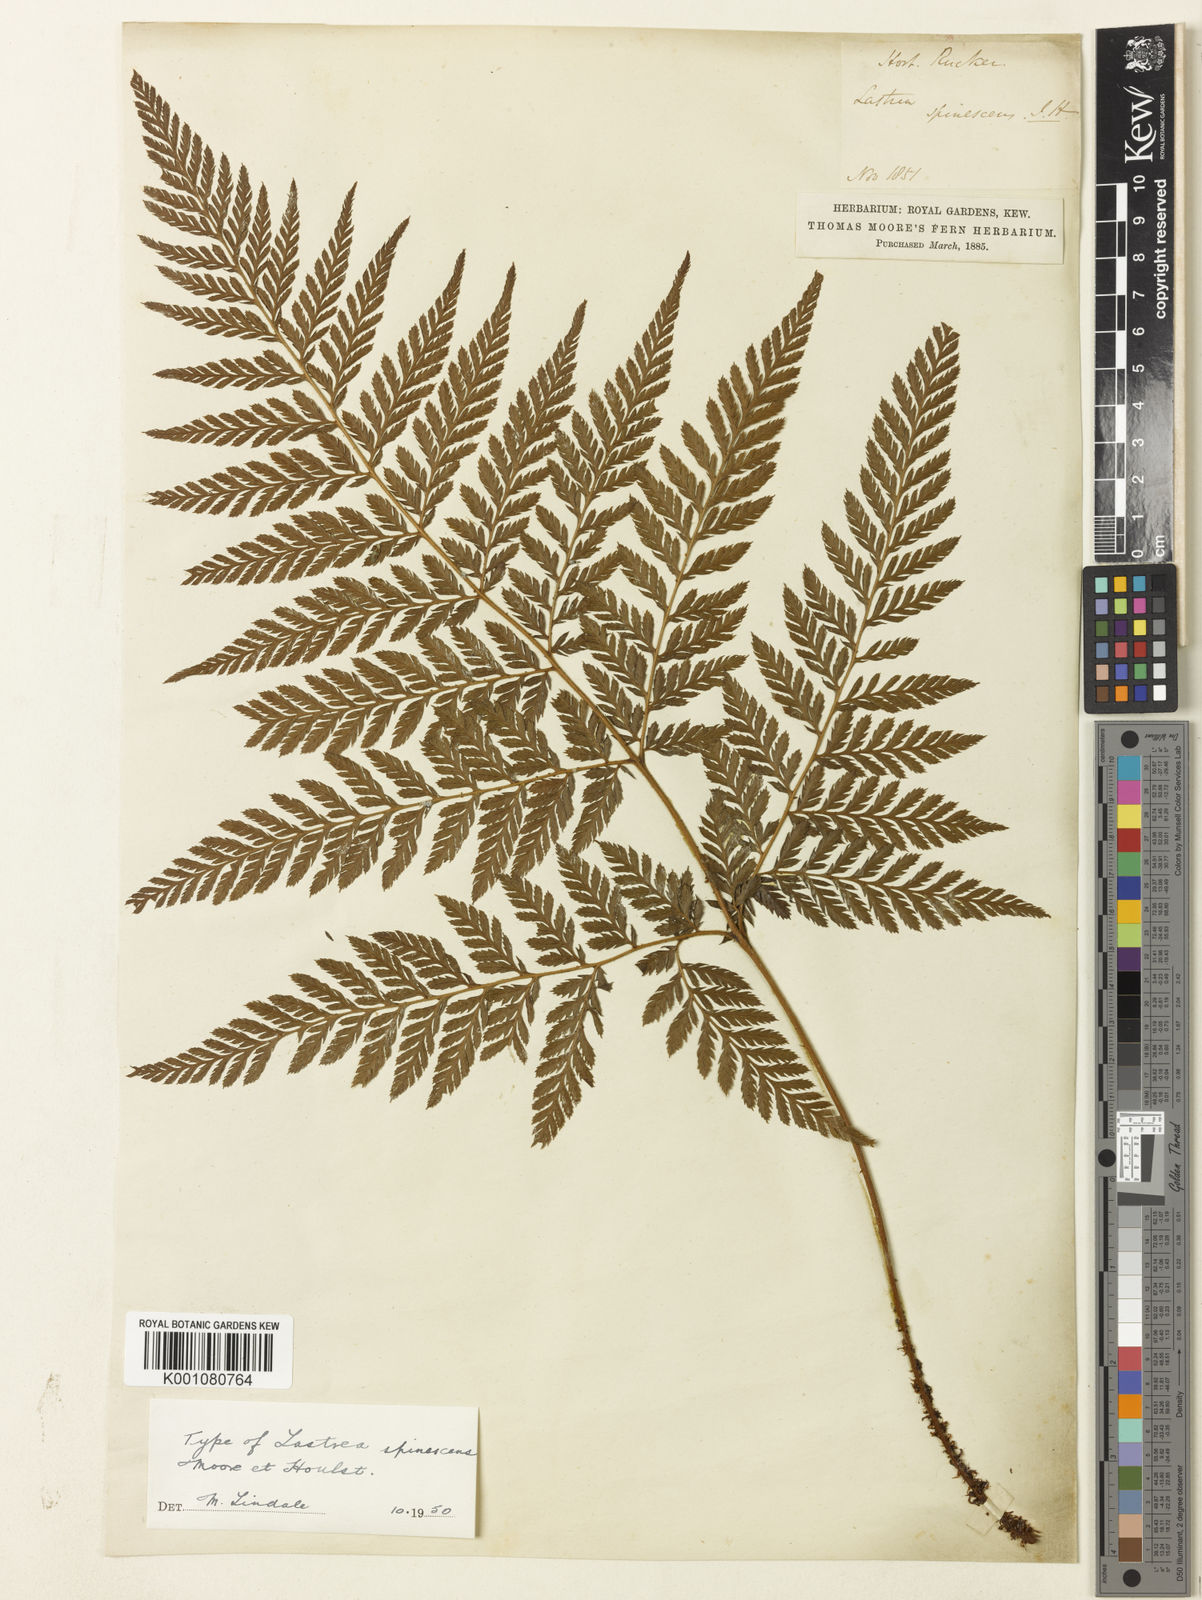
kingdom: Plantae
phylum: Tracheophyta
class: Polypodiopsida
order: Polypodiales
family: Dryopteridaceae
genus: Lastreopsis
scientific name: Lastreopsis decomposita
